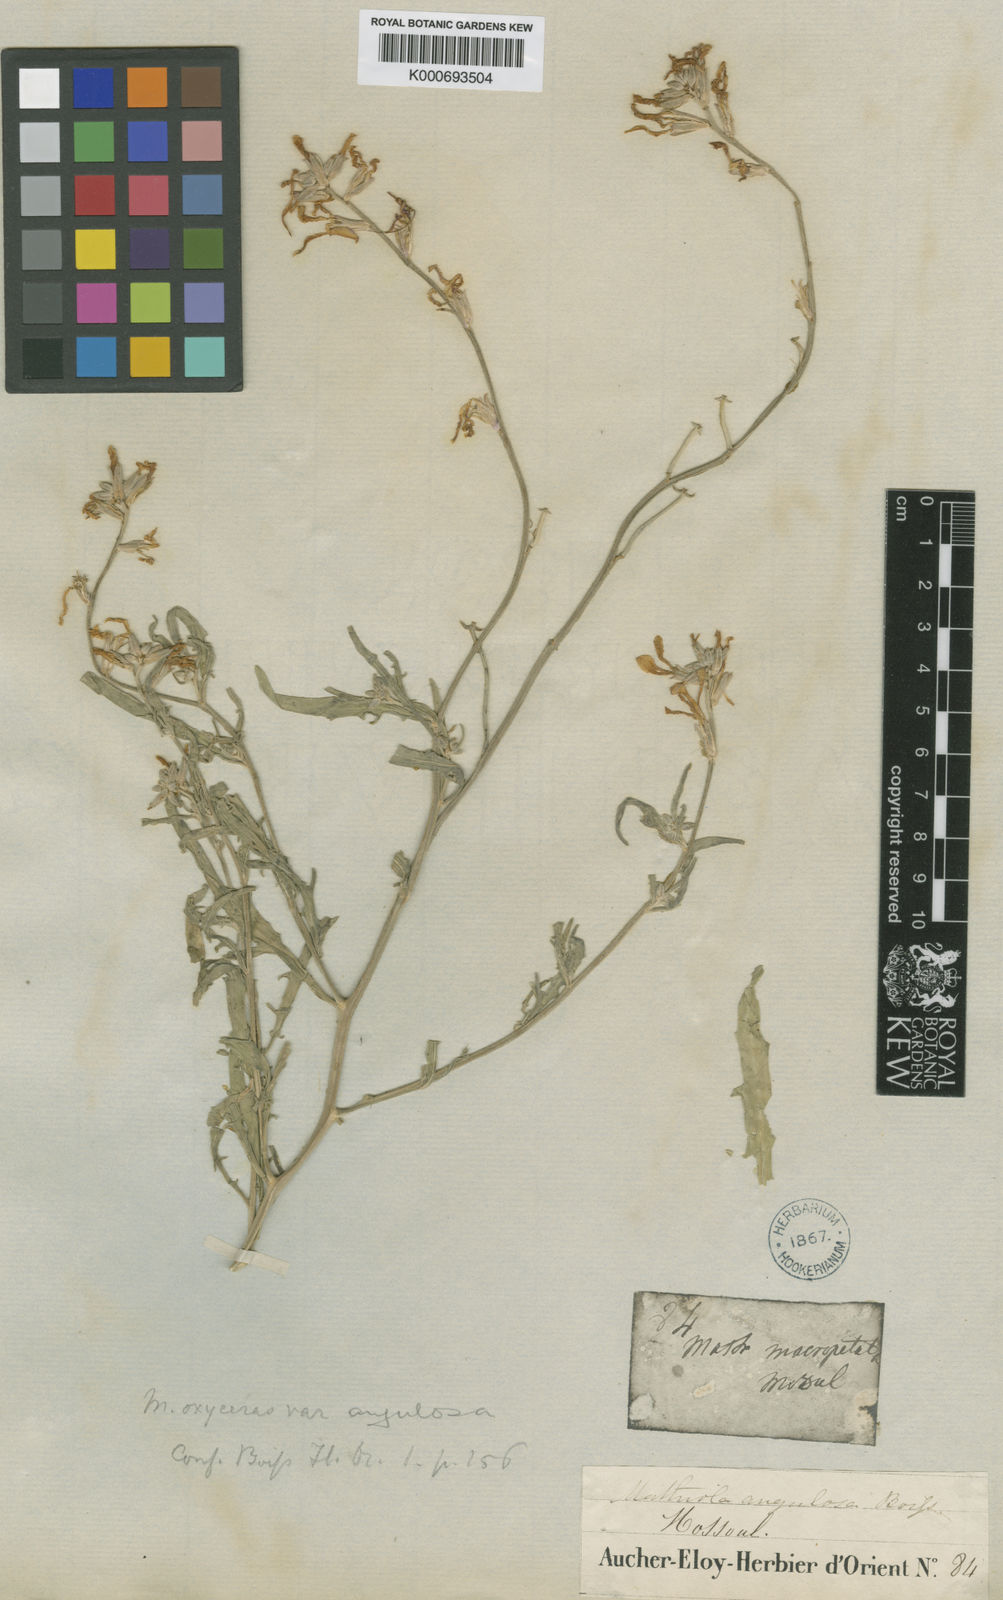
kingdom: Plantae
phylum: Tracheophyta
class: Magnoliopsida
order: Brassicales
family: Brassicaceae
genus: Matthiola
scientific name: Matthiola longipetala
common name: Night-scented stock
